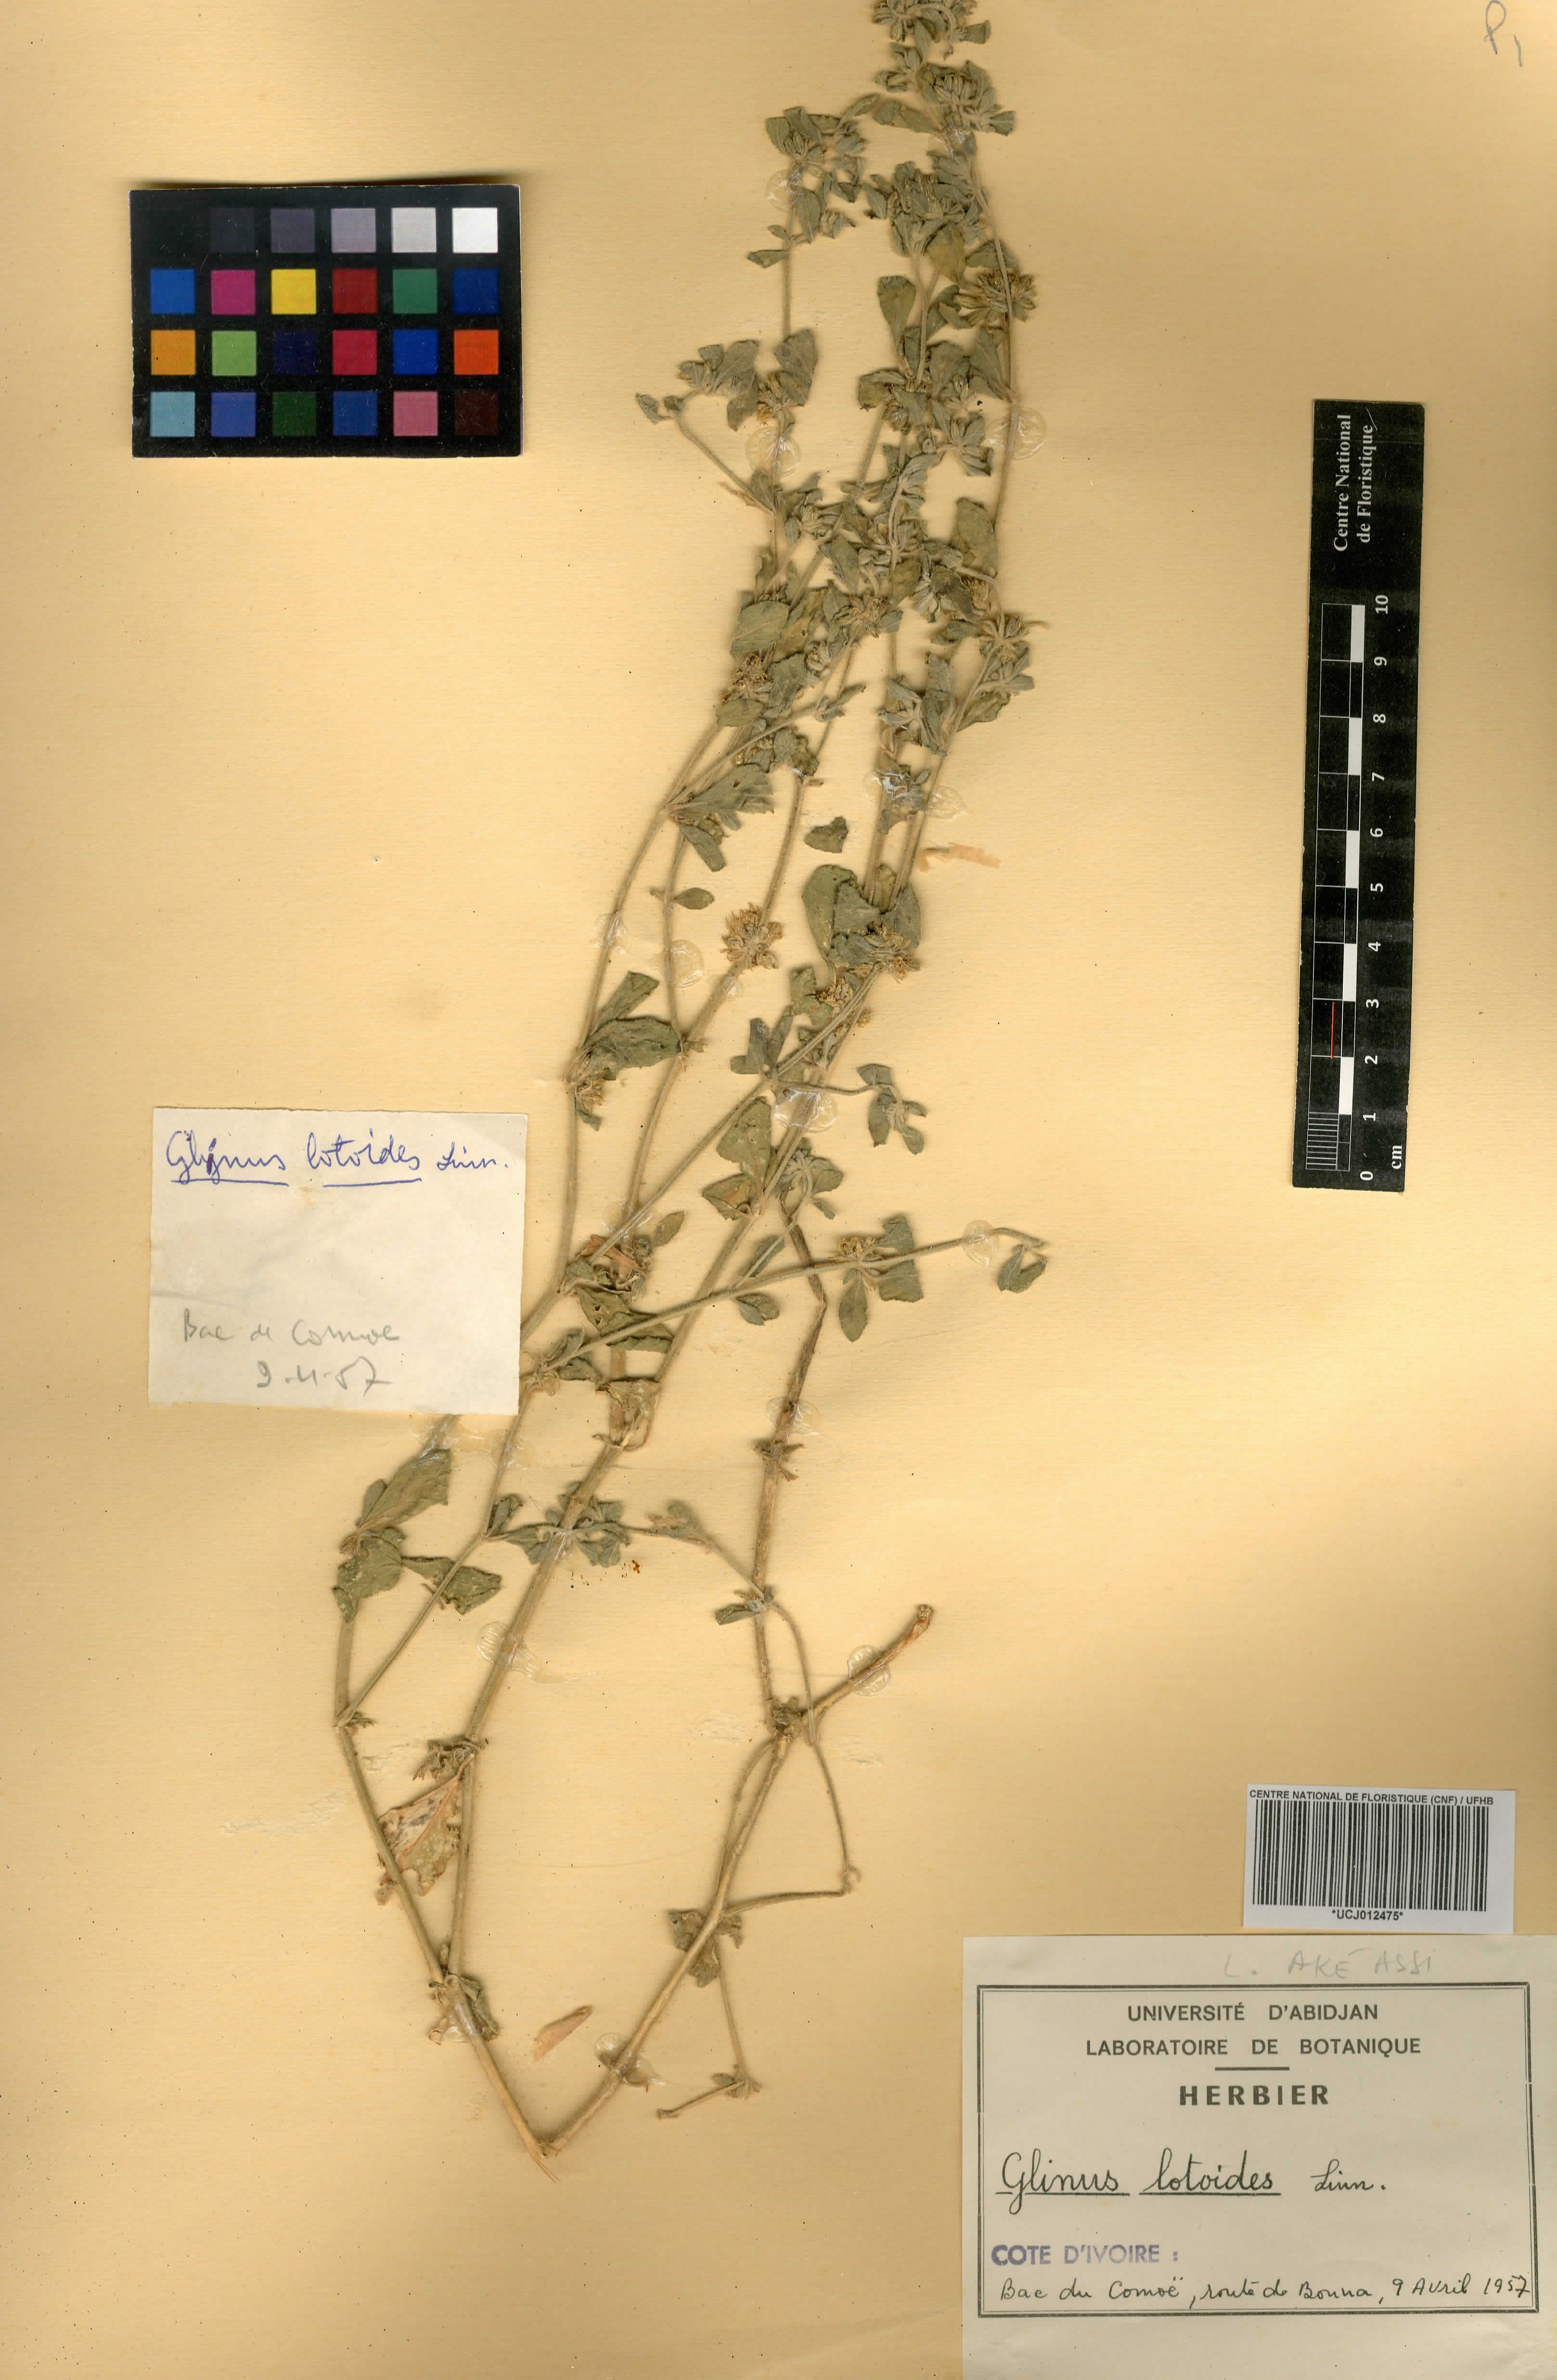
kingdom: Plantae
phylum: Tracheophyta
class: Magnoliopsida
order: Caryophyllales
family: Molluginaceae
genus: Glinus
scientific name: Glinus lotoides
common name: Lotus sweetjuice
